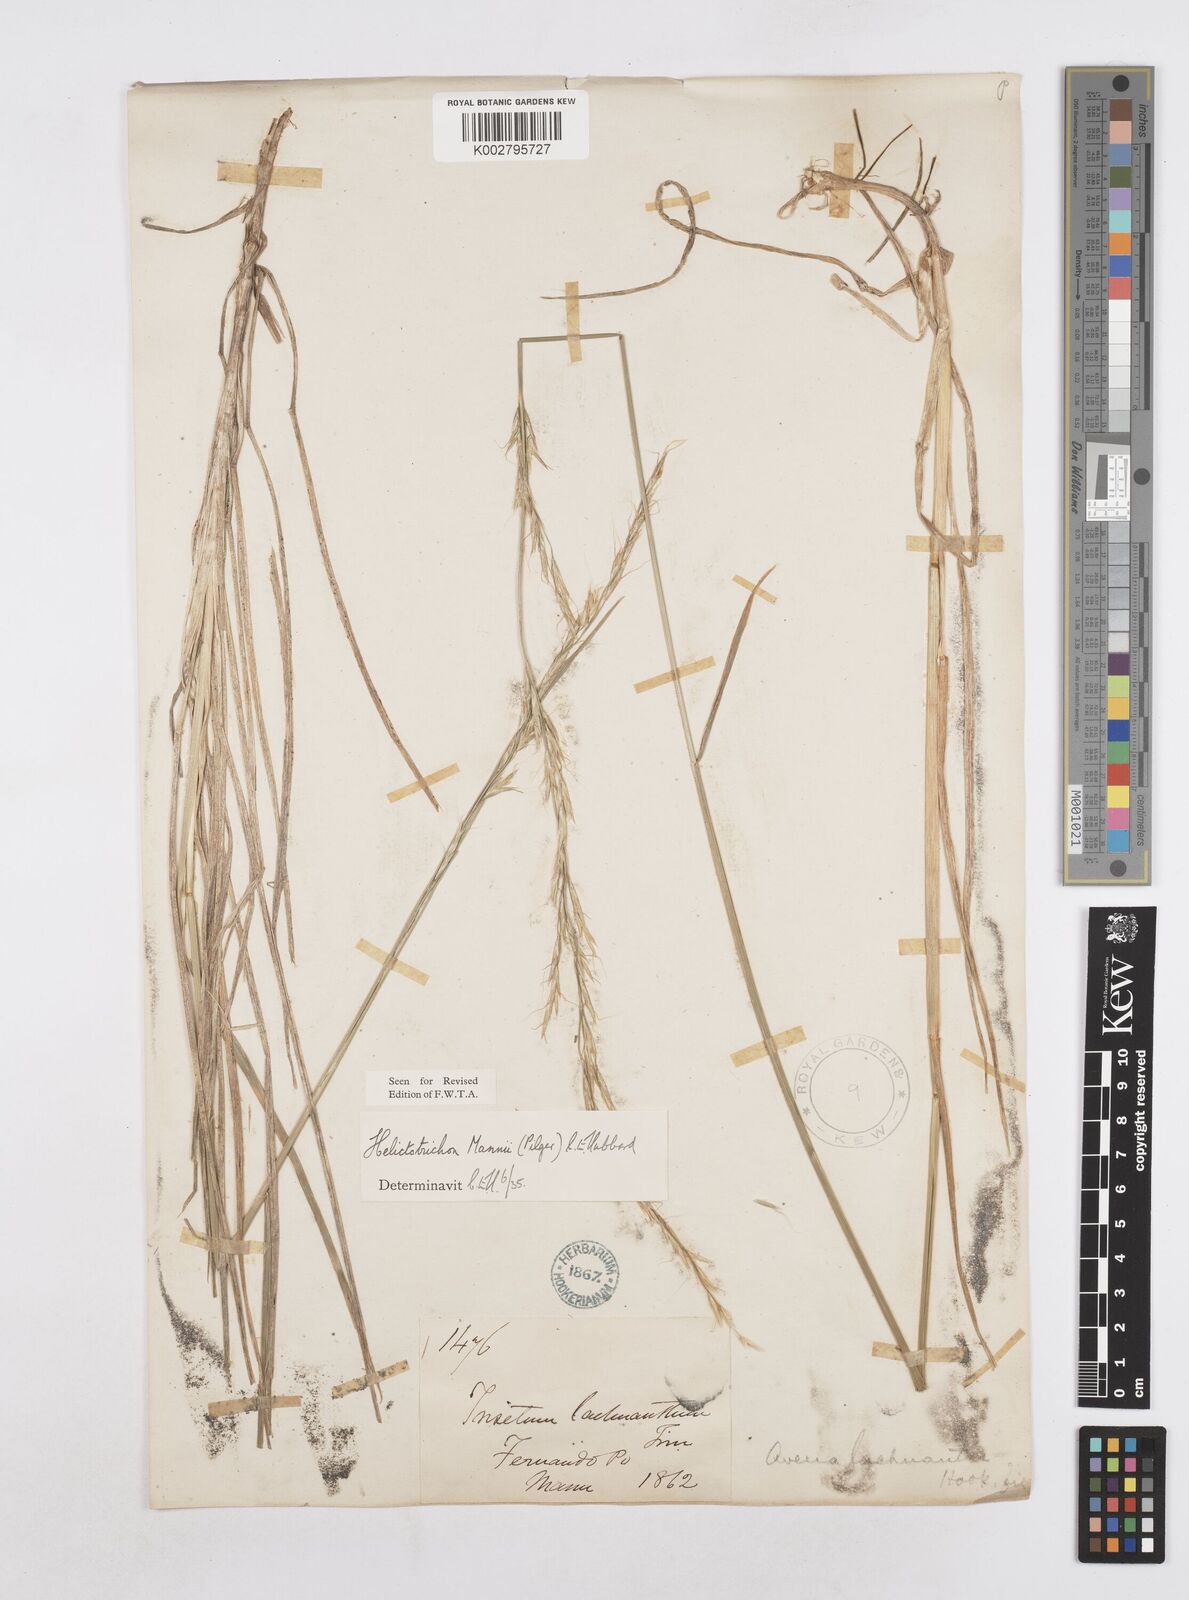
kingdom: Plantae
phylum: Tracheophyta
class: Liliopsida
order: Poales
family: Poaceae
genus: Trisetopsis
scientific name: Trisetopsis mannii
